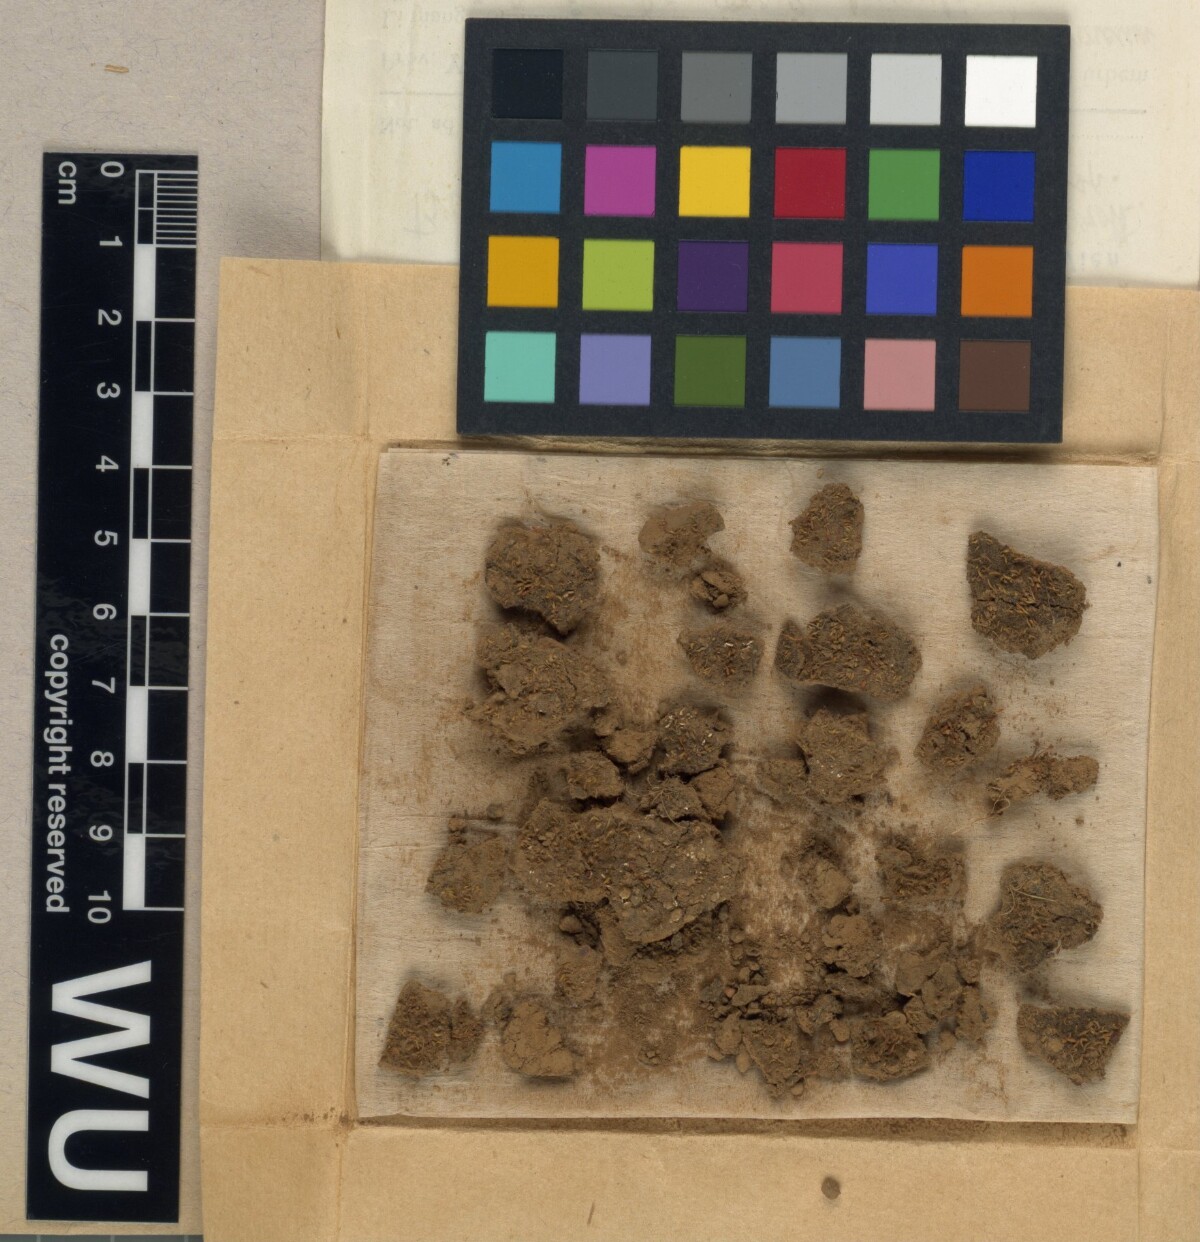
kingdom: Plantae
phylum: Bryophyta
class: Bryopsida
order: Funariales
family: Funariaceae
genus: Brachymeniopsis
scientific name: Brachymeniopsis gymnostoma
